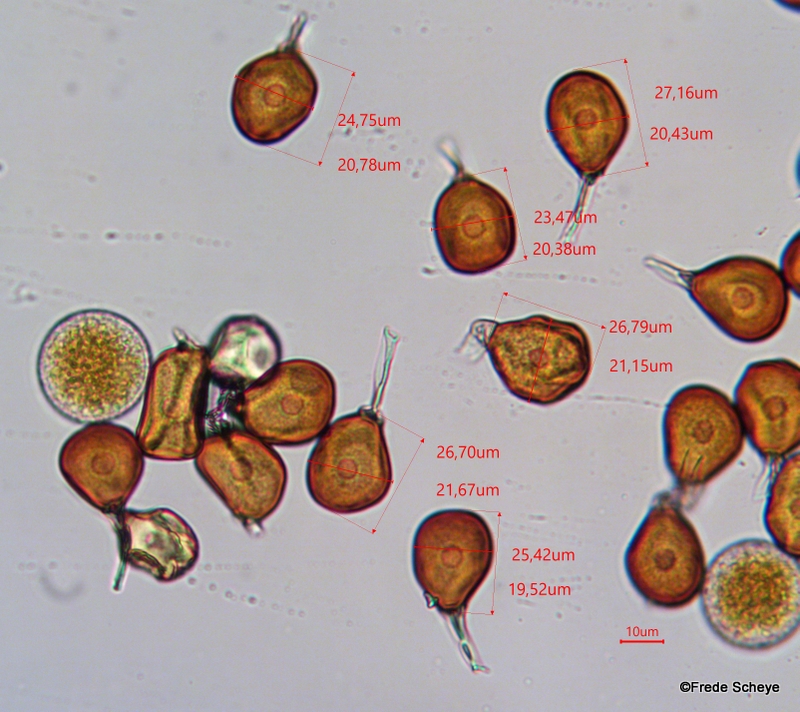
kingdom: Fungi
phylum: Basidiomycota
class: Pucciniomycetes
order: Pucciniales
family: Pucciniaceae
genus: Puccinia
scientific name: Puccinia porri
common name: Allium rust
